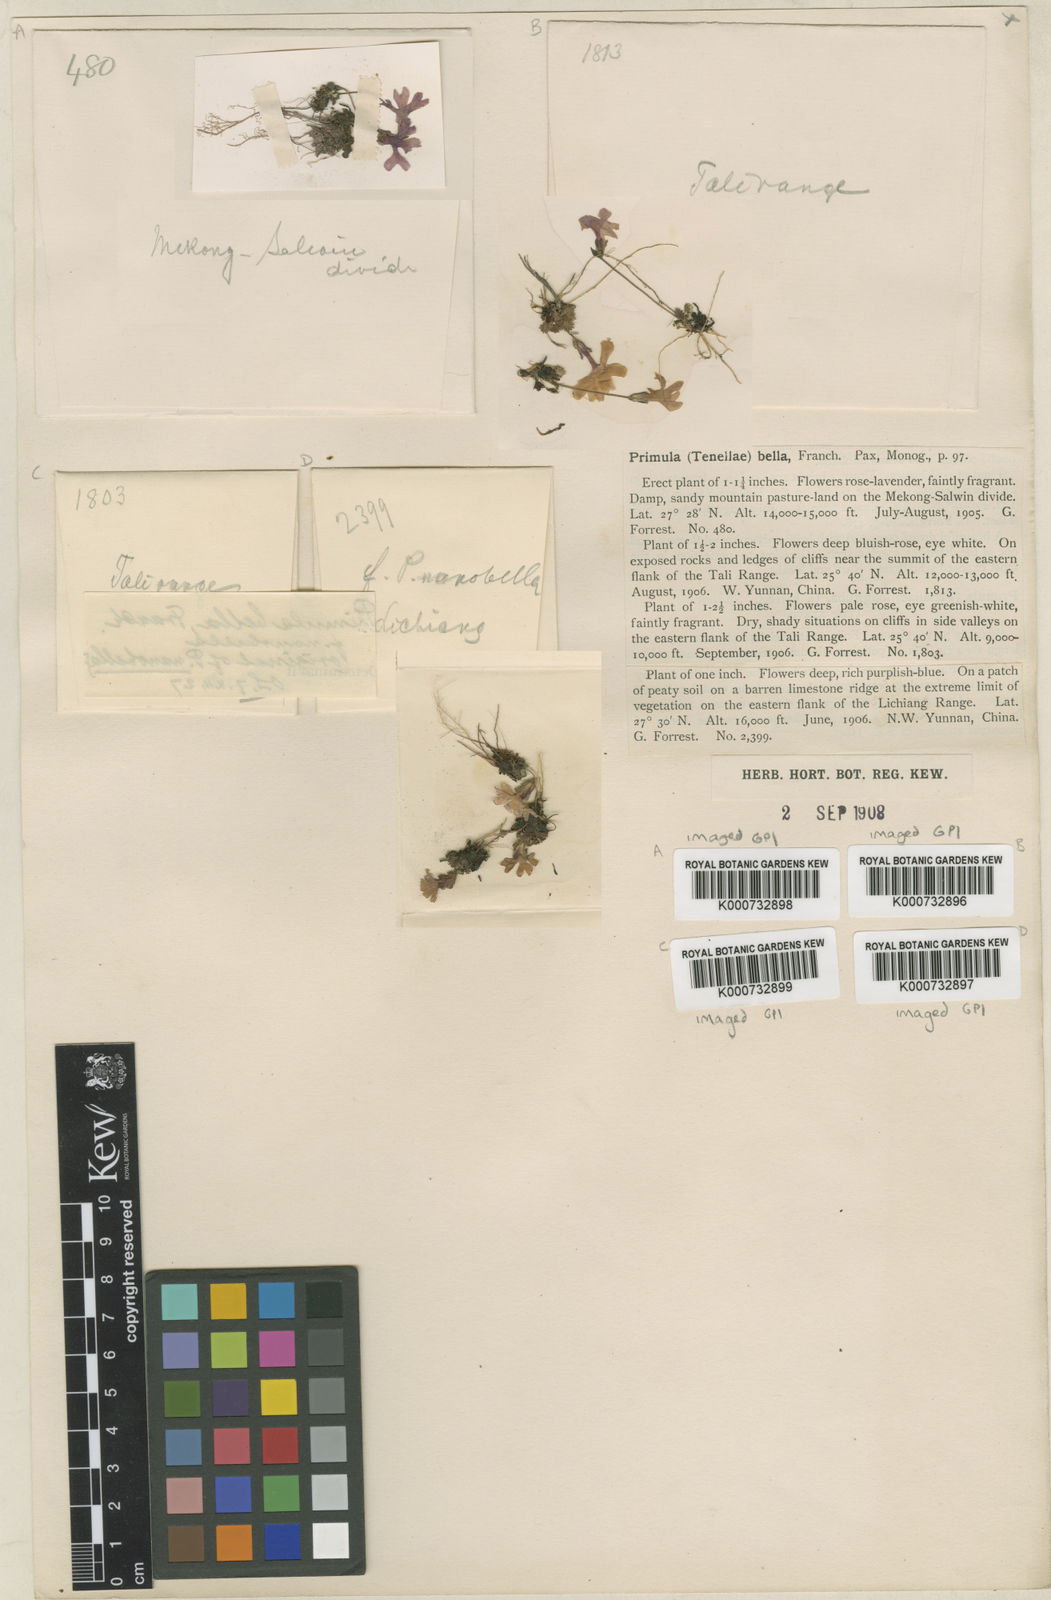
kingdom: Plantae
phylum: Tracheophyta
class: Magnoliopsida
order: Ericales
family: Primulaceae
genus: Primula
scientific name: Primula bella
